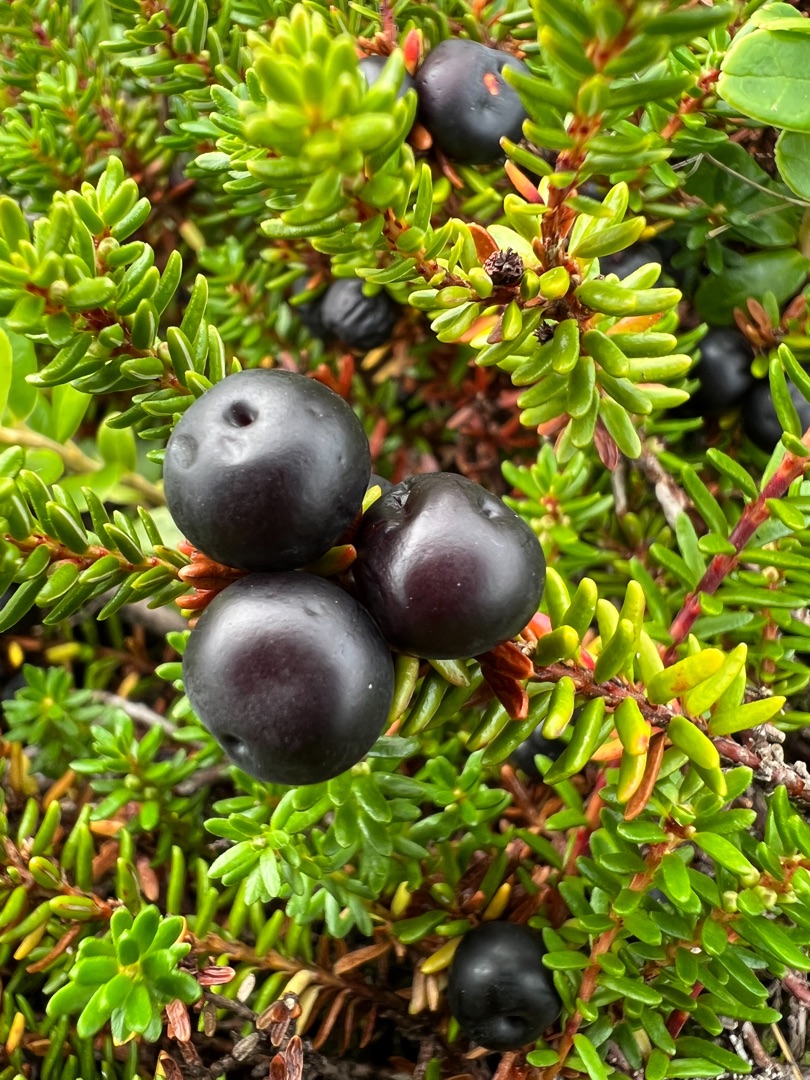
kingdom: Plantae
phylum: Tracheophyta
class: Magnoliopsida
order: Ericales
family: Ericaceae
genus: Empetrum
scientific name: Empetrum nigrum
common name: Revling
